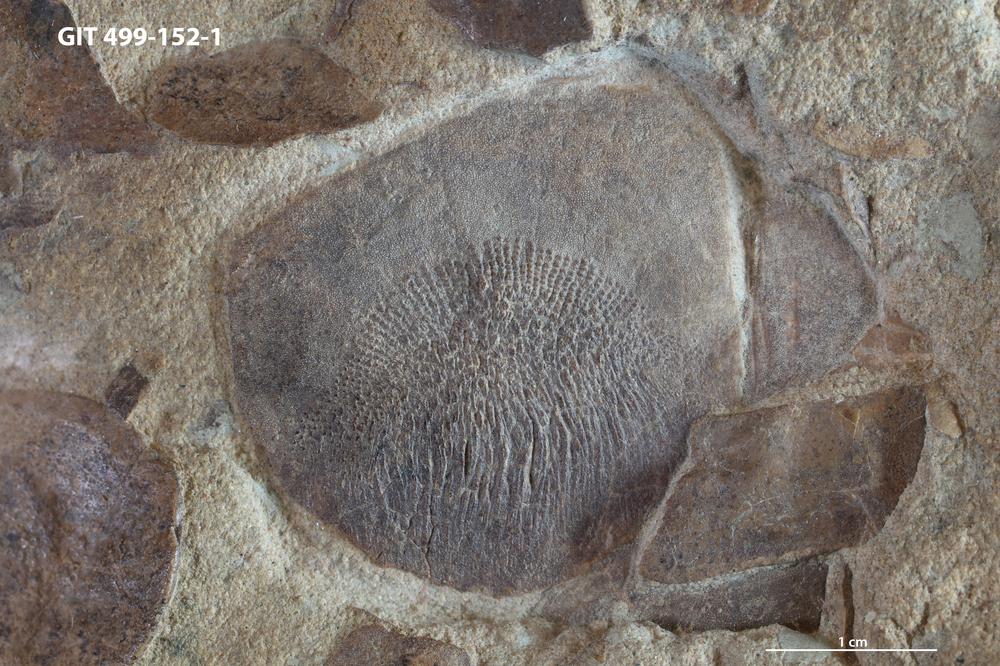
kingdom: Animalia
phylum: Chordata
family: Holoptychiidae
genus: Glyptolepis
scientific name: Glyptolepis
